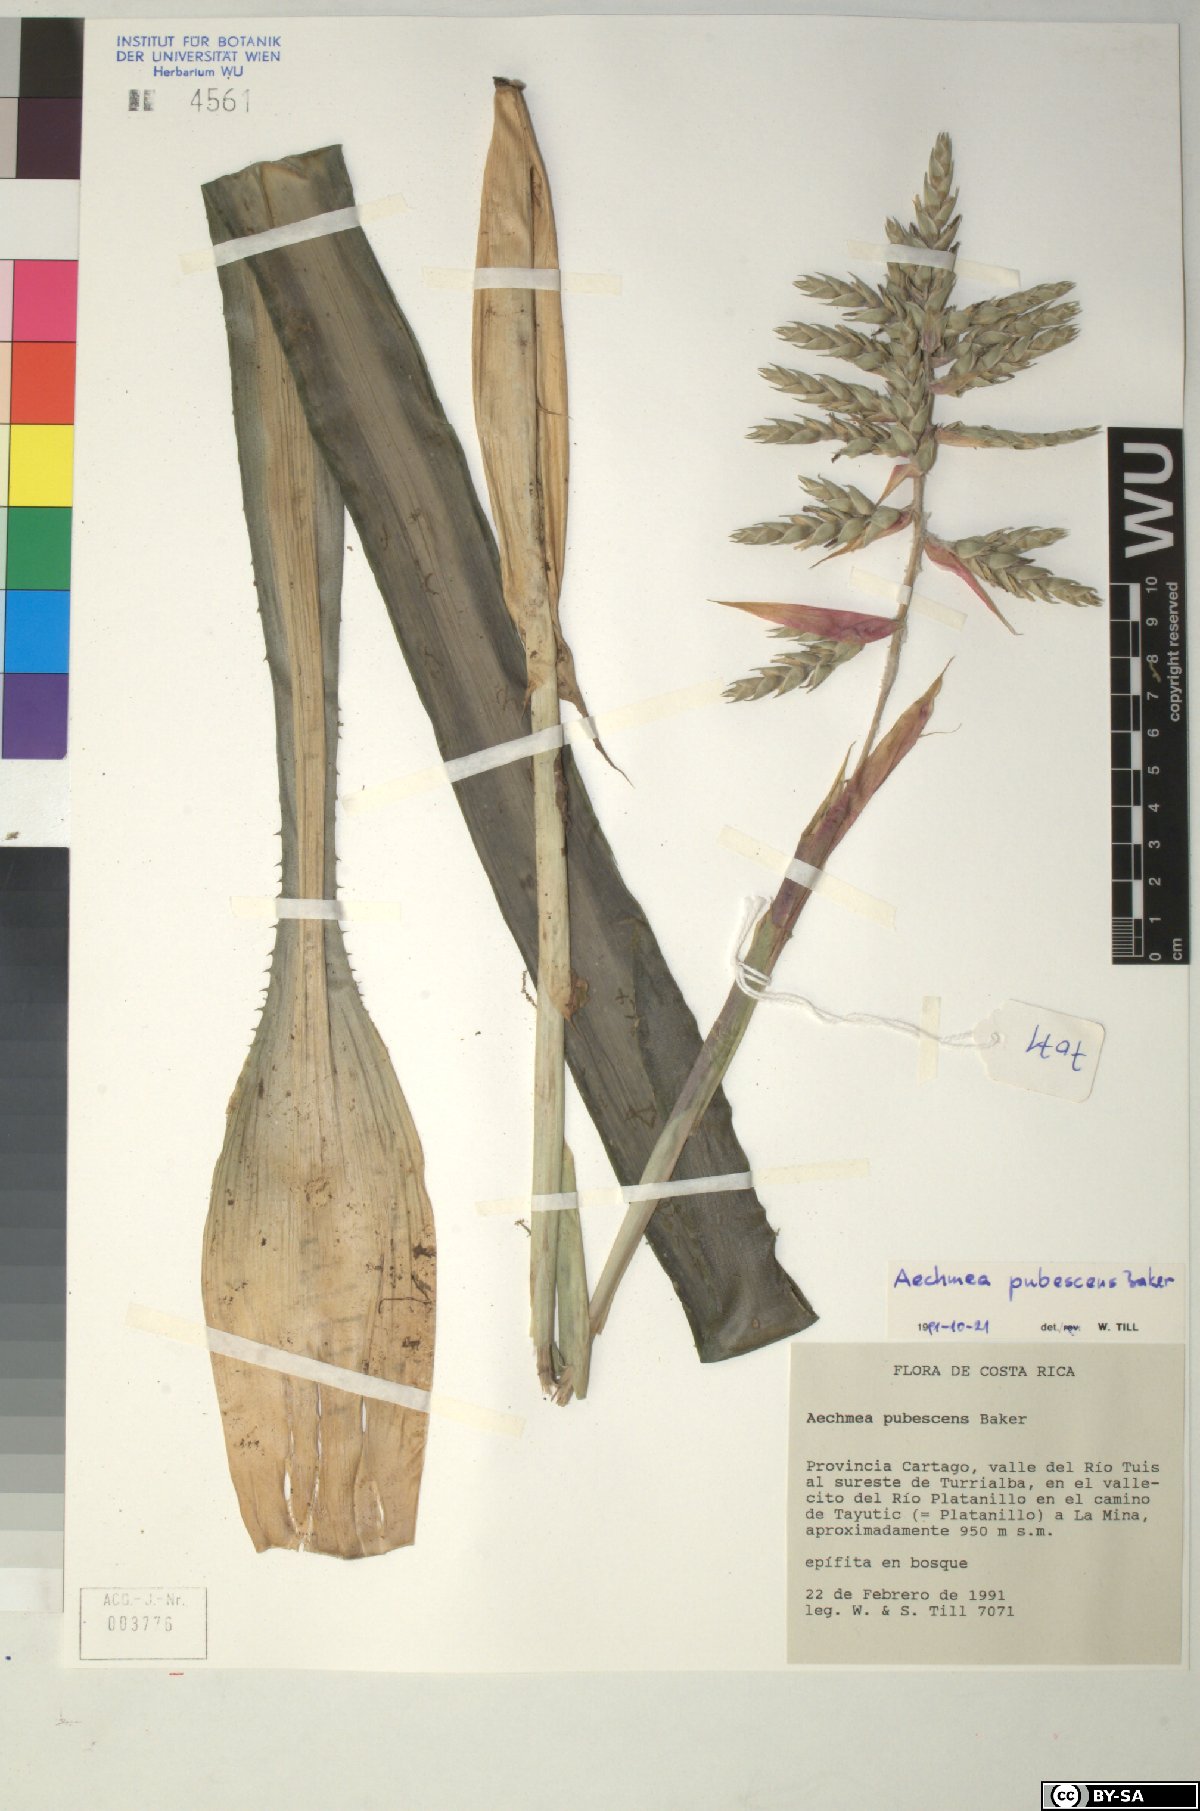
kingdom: Plantae
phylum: Tracheophyta
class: Liliopsida
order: Poales
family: Bromeliaceae
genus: Aechmea
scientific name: Aechmea pubescens
